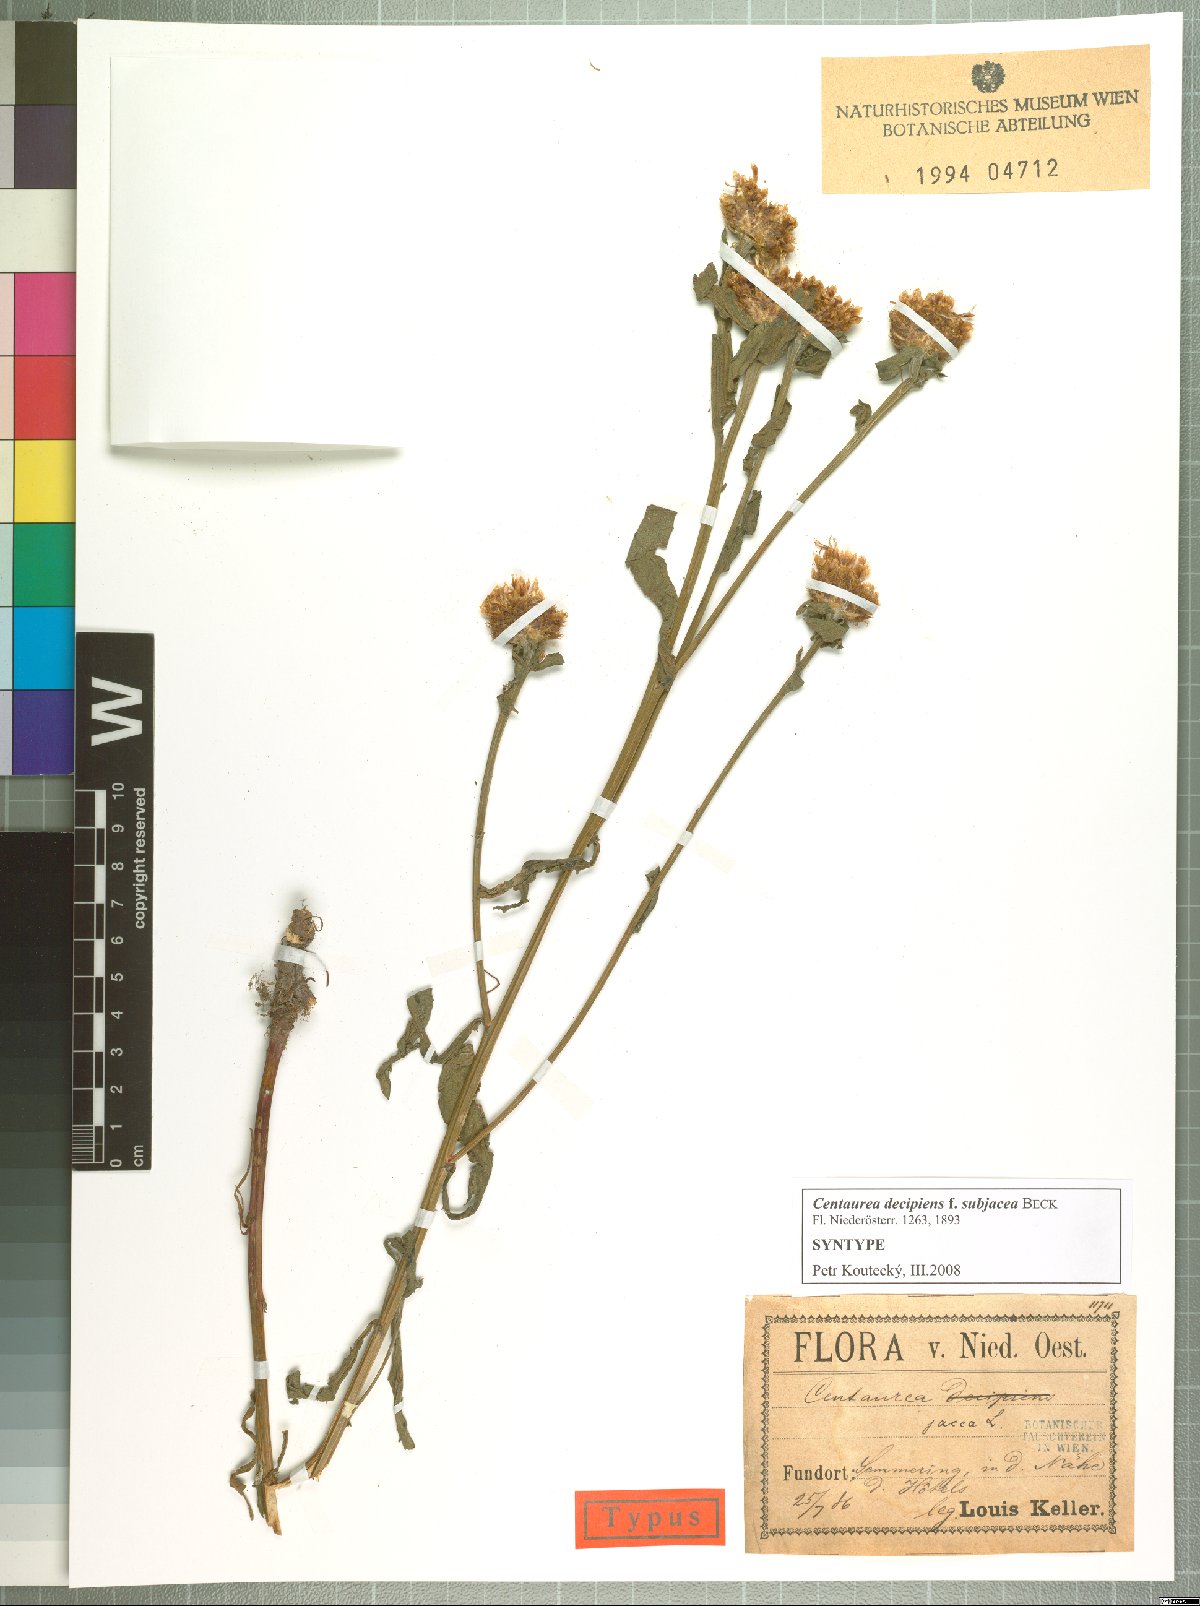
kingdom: Plantae
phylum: Tracheophyta
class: Magnoliopsida
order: Asterales
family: Asteraceae
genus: Centaurea
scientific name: Centaurea preissmannii
